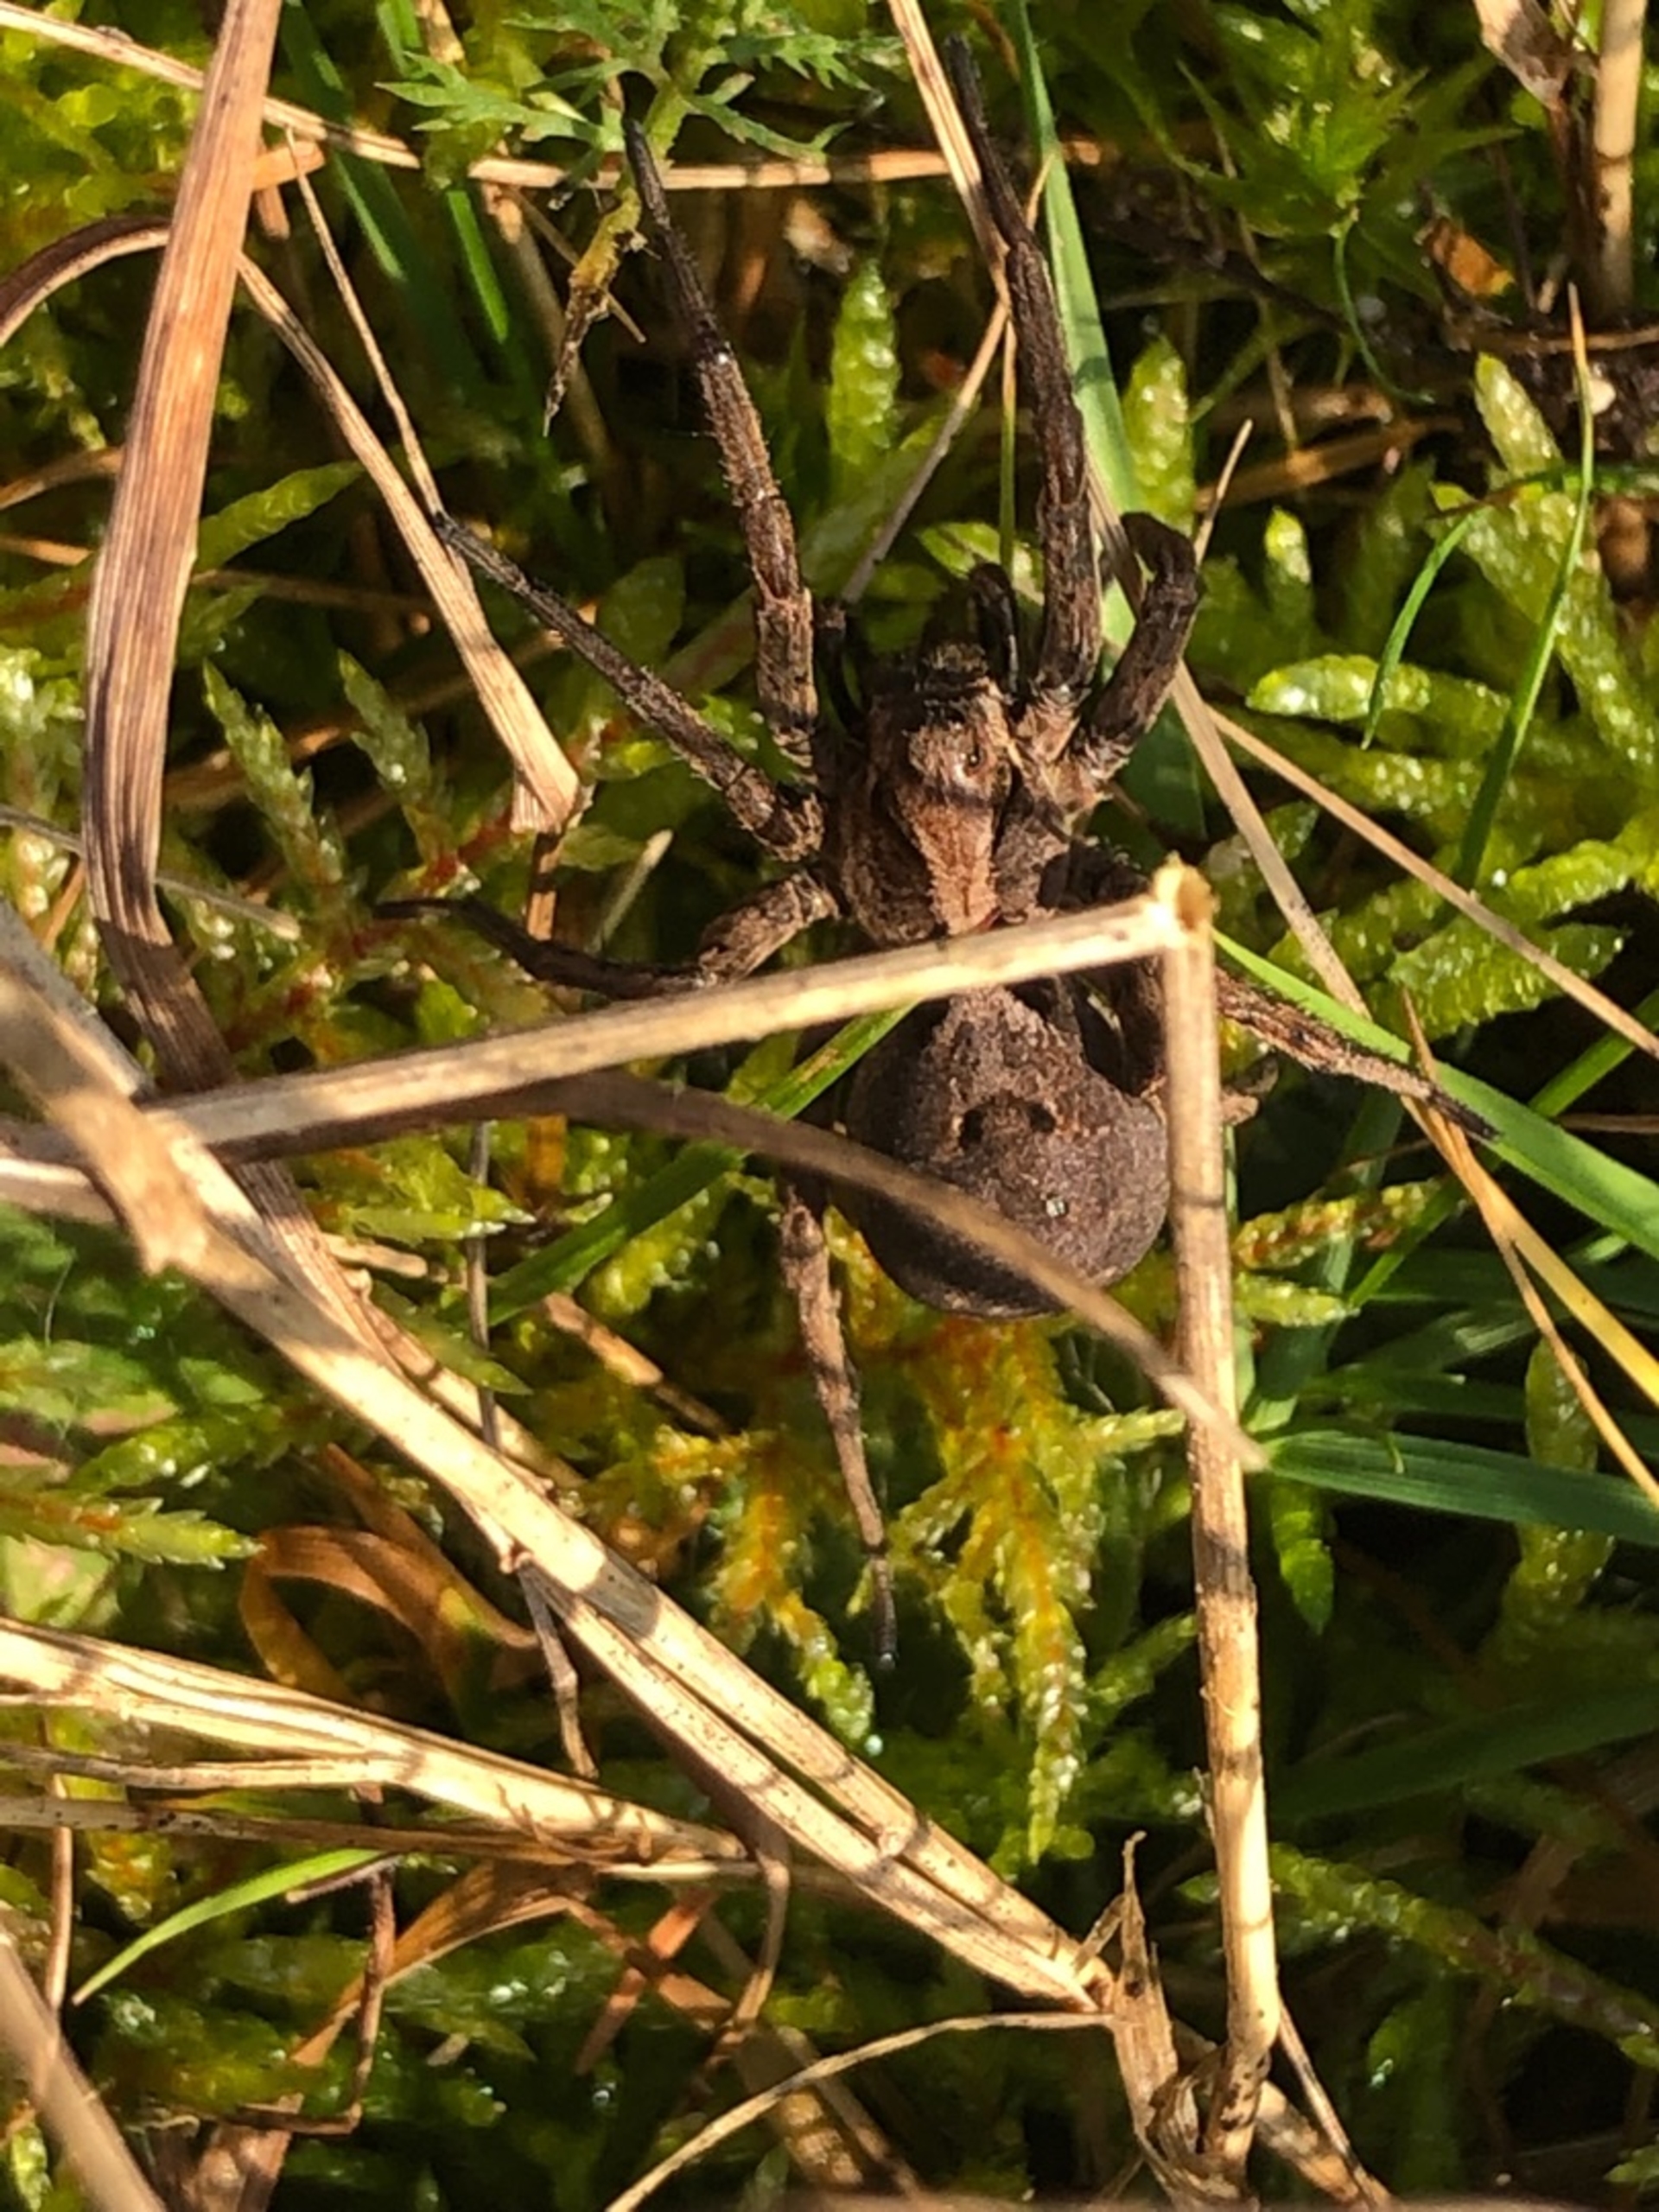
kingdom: Animalia
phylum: Arthropoda
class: Arachnida
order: Araneae
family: Lycosidae
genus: Alopecosa
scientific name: Alopecosa inquilina
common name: Stor kæmpejæger
